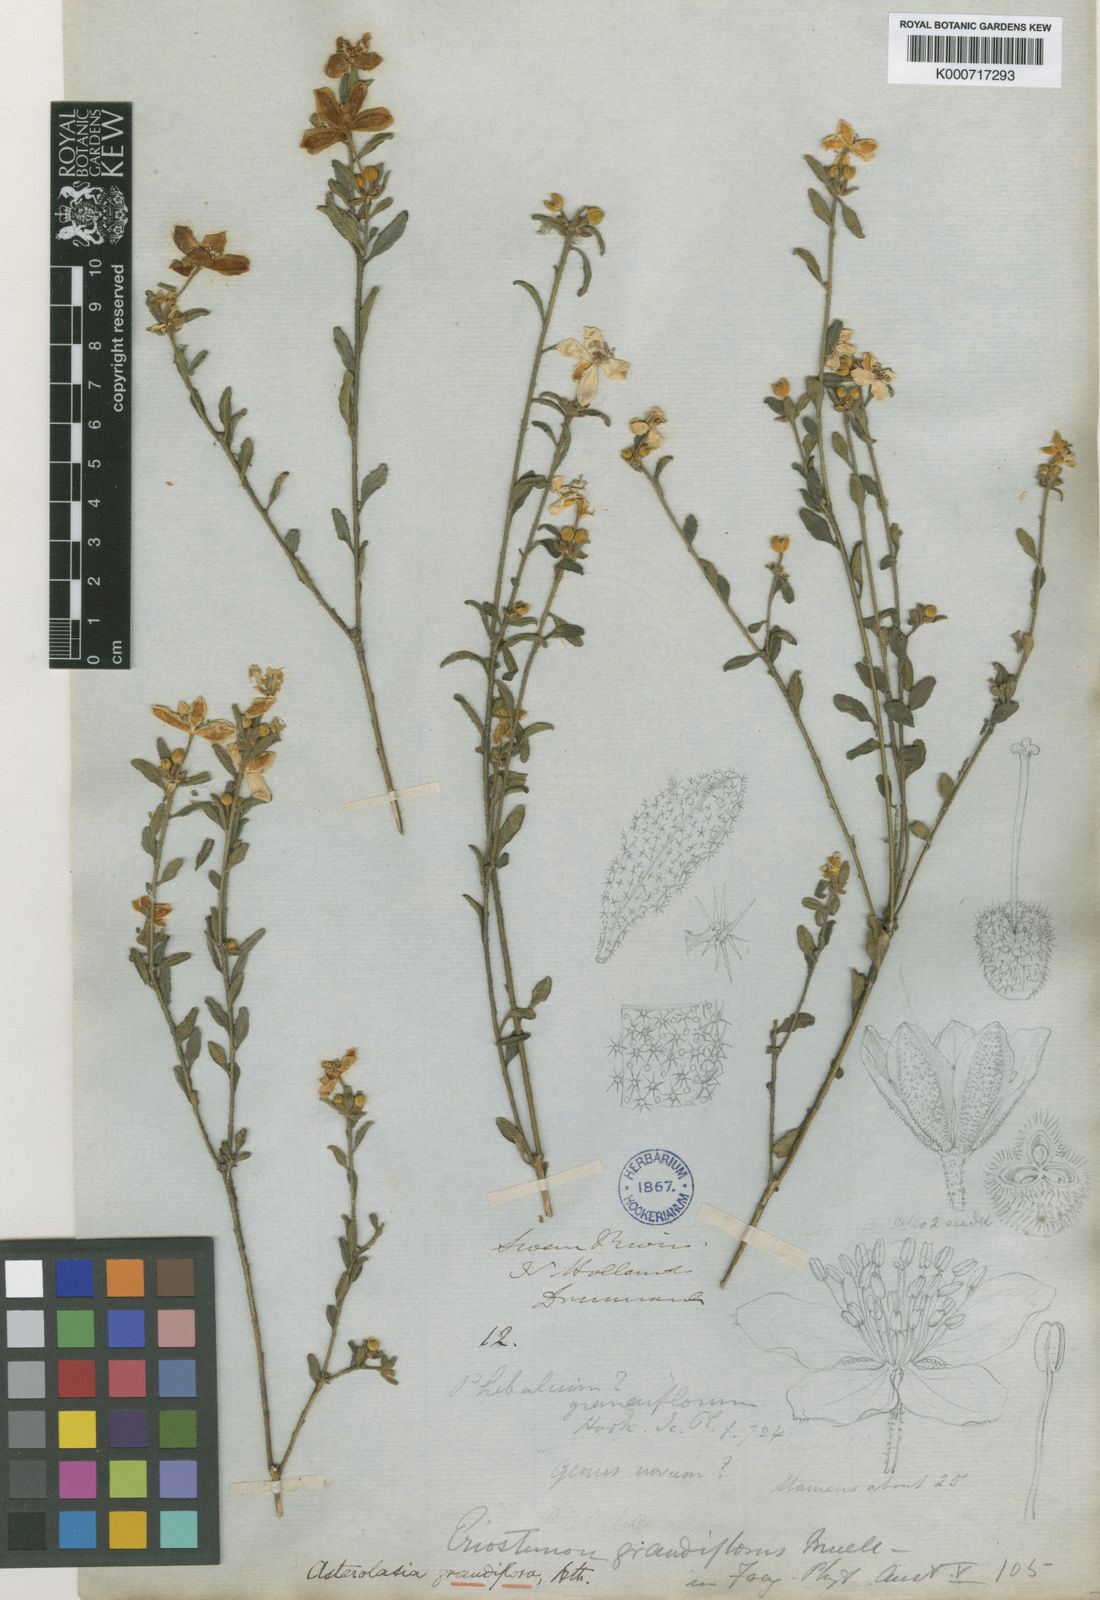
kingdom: Plantae
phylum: Tracheophyta
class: Magnoliopsida
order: Sapindales
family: Rutaceae
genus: Asterolasia
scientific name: Asterolasia grandiflora
